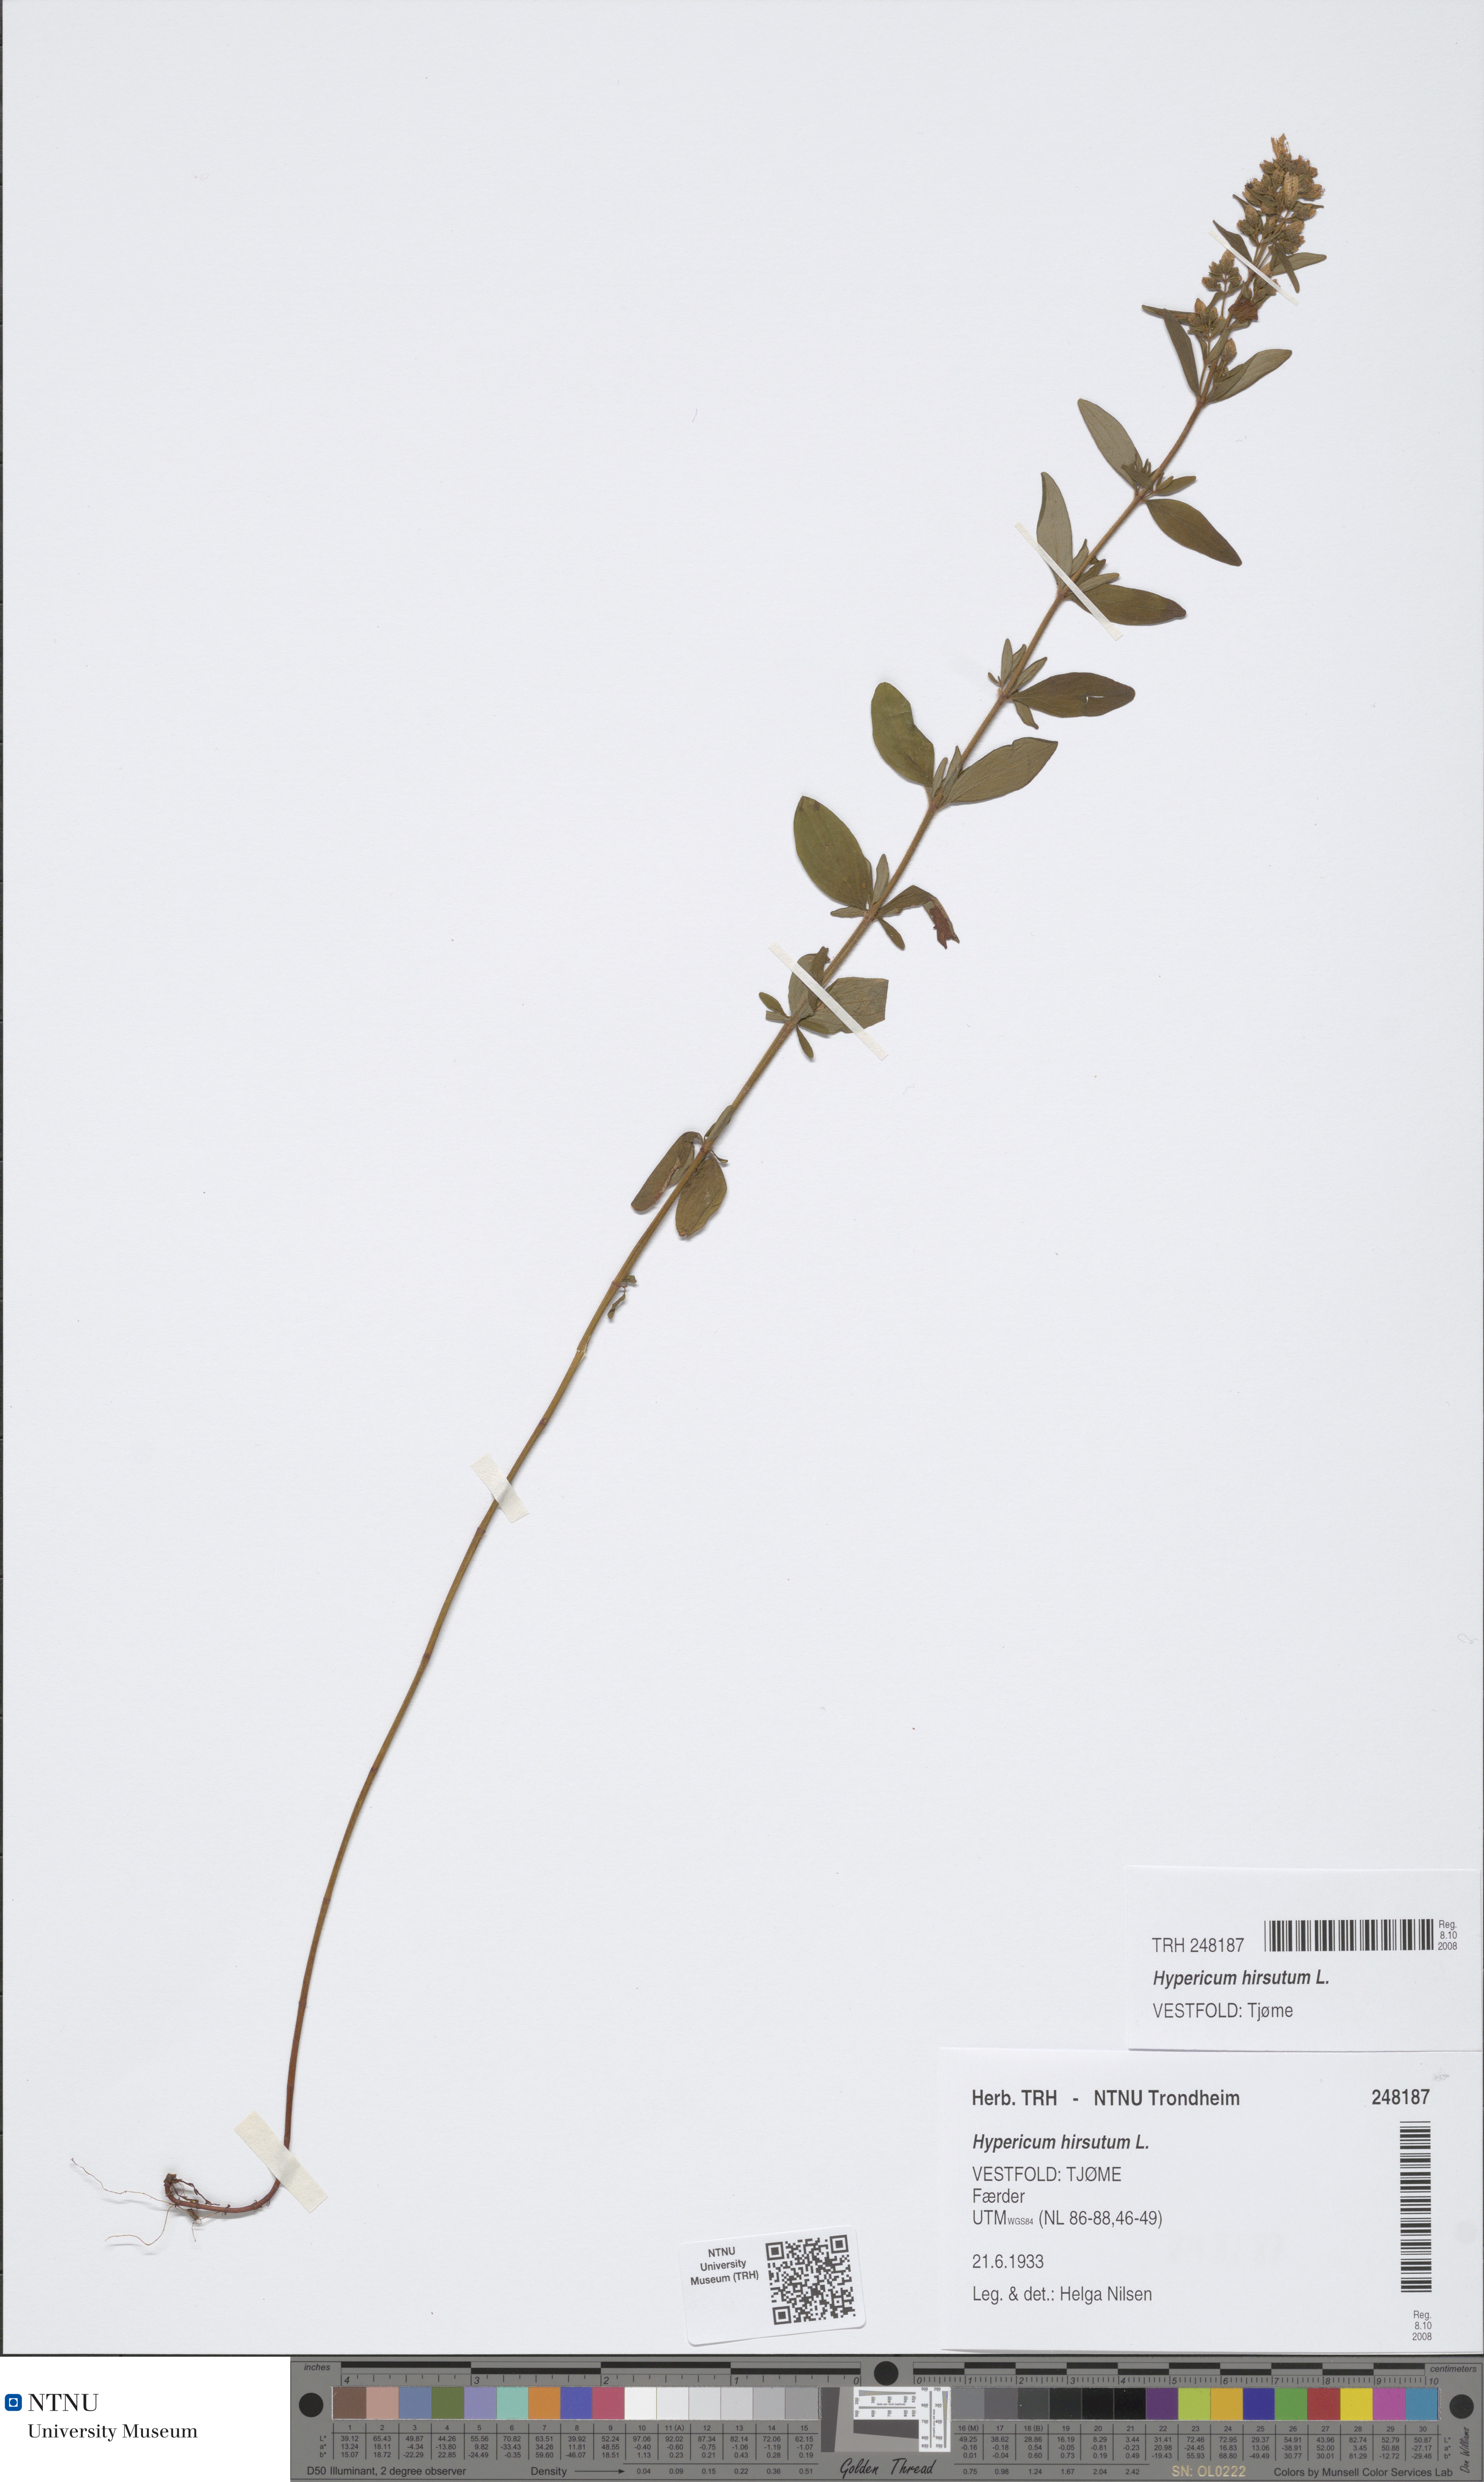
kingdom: Plantae
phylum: Tracheophyta
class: Magnoliopsida
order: Malpighiales
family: Hypericaceae
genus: Hypericum
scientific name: Hypericum hirsutum
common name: Hairy st. john's-wort
